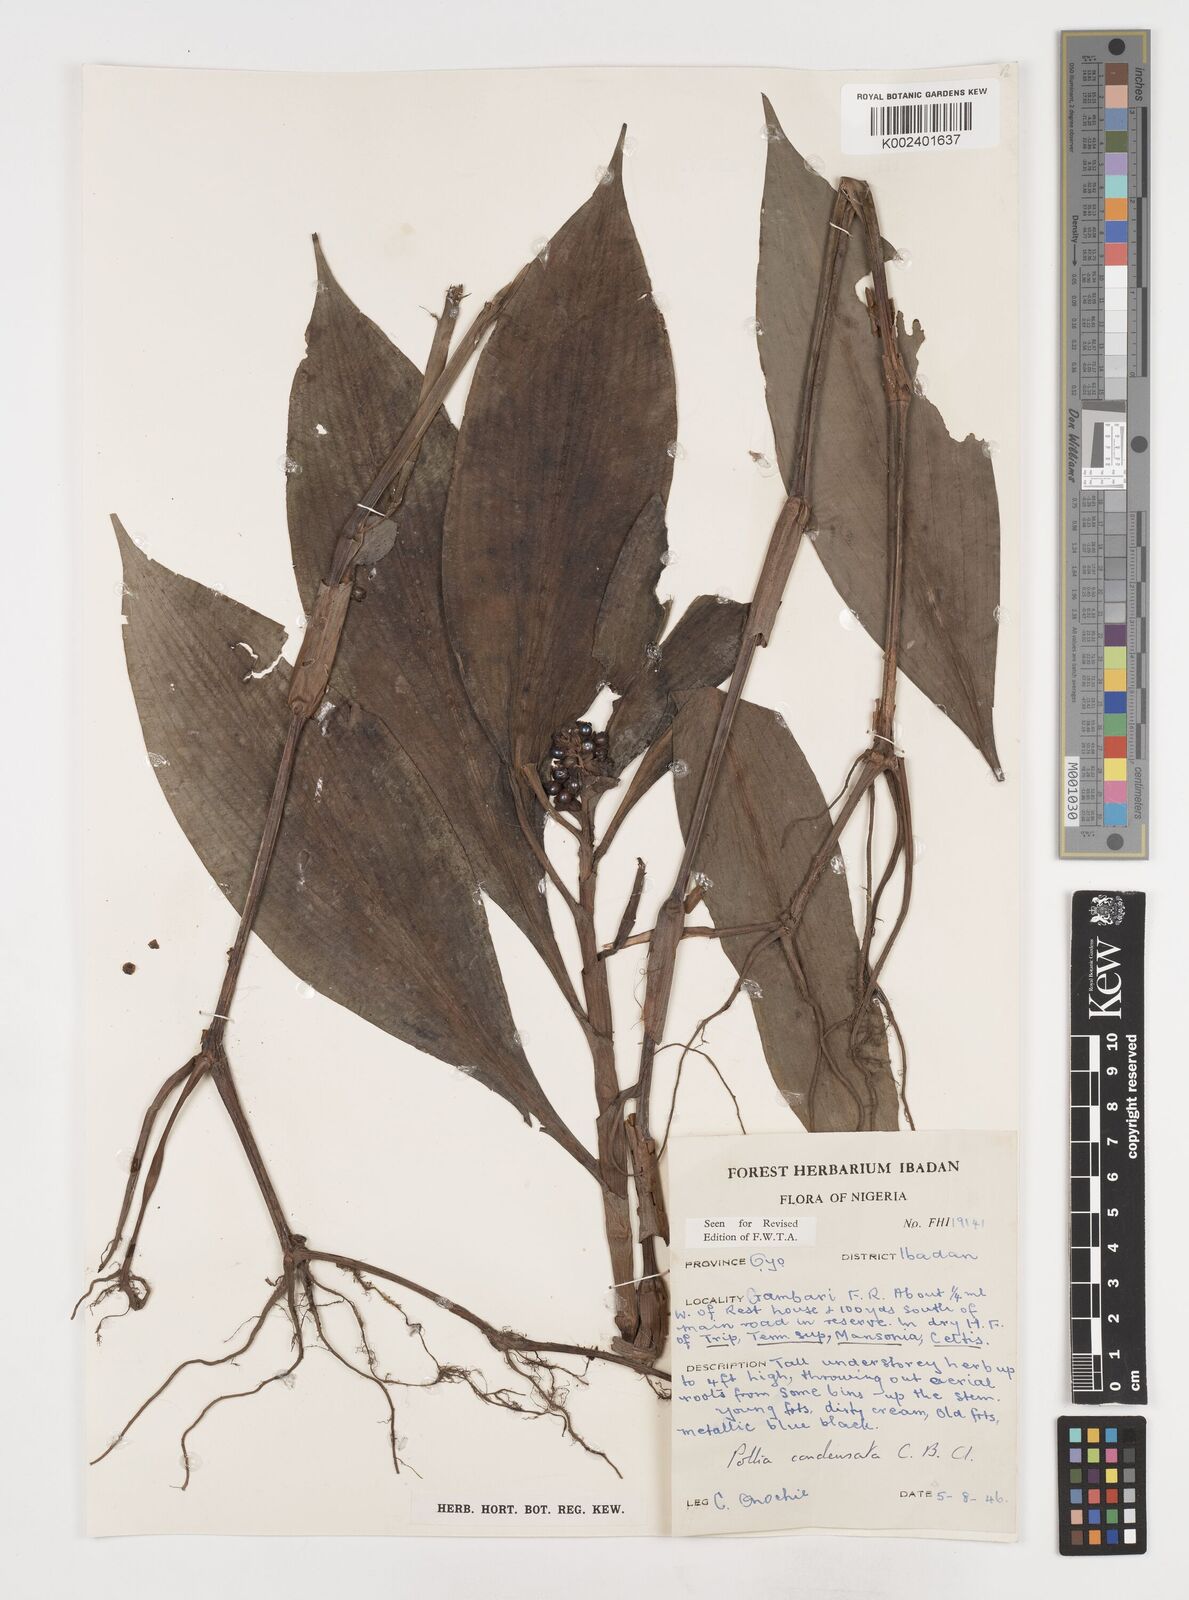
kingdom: Plantae
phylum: Tracheophyta
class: Liliopsida
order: Commelinales
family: Commelinaceae
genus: Pollia
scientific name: Pollia condensata
